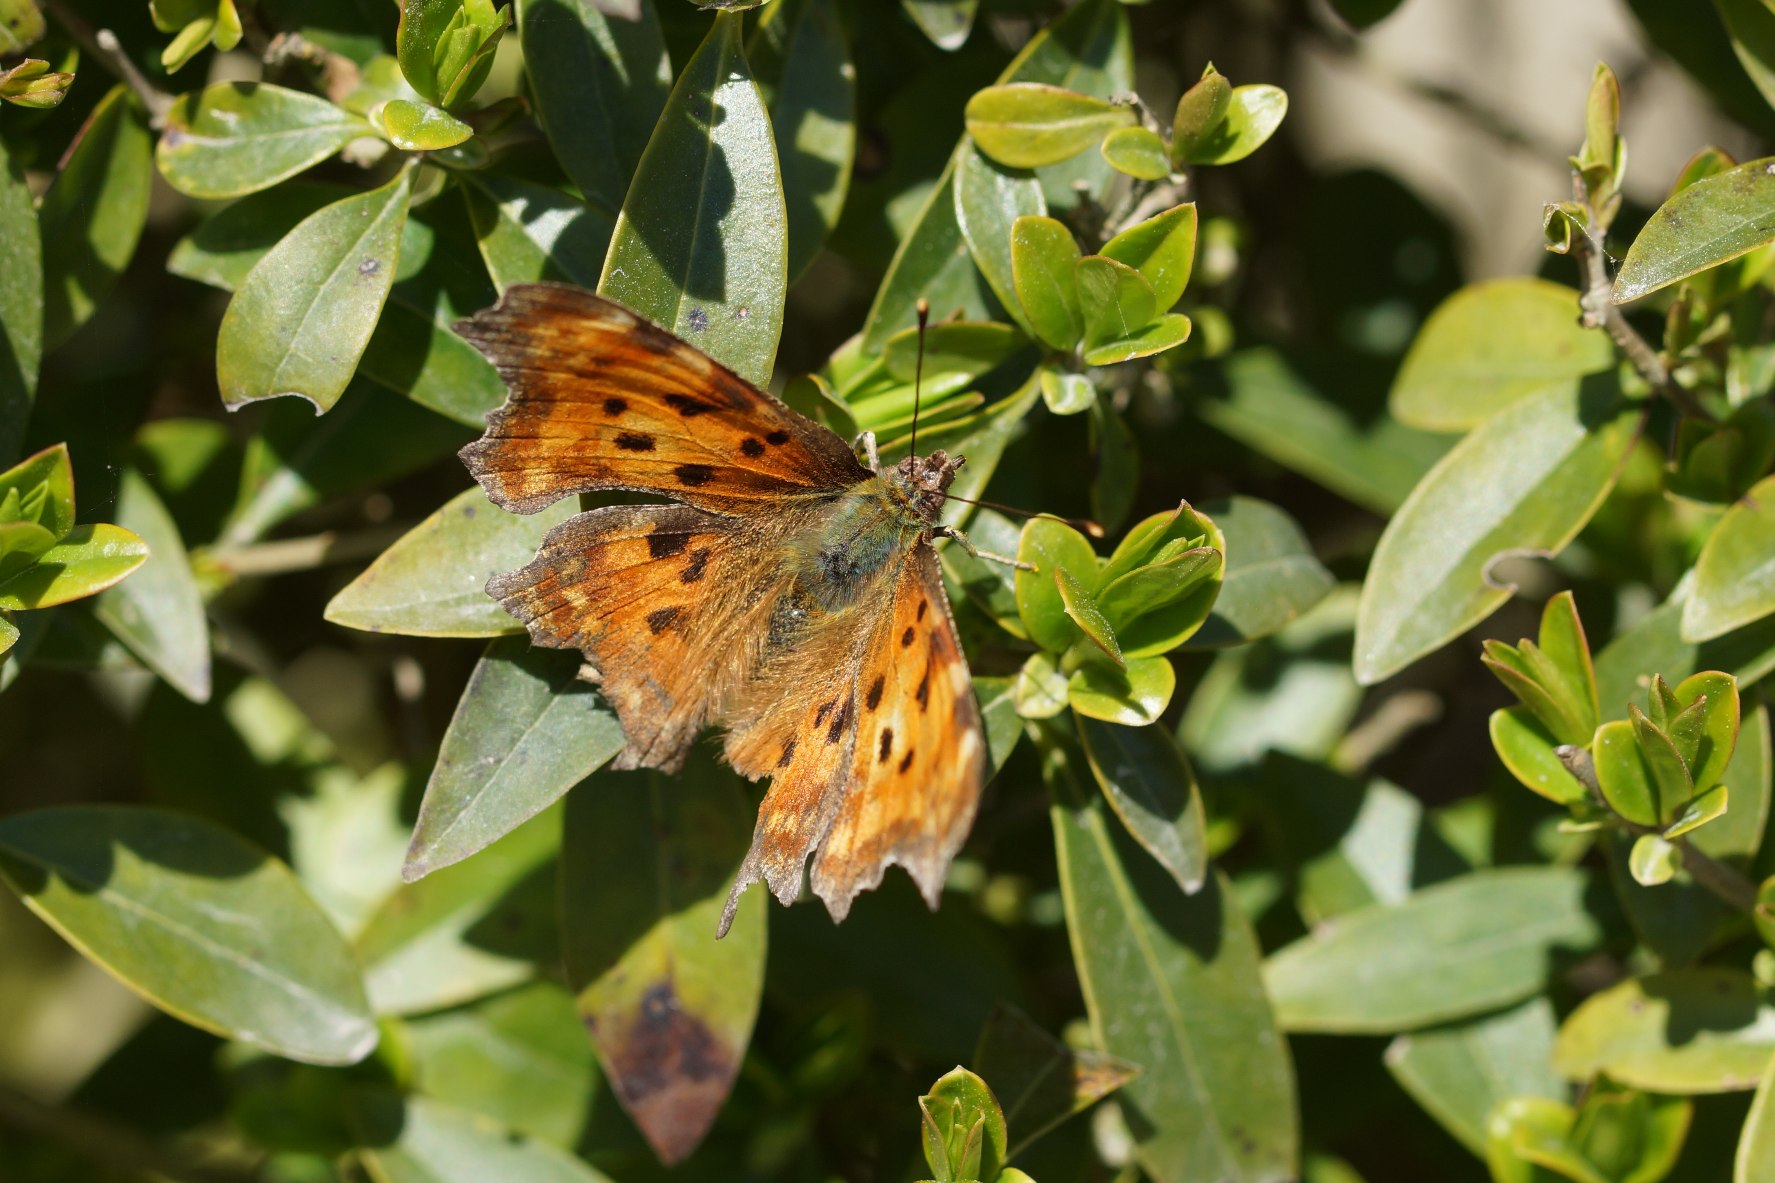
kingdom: Animalia
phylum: Arthropoda
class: Insecta
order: Lepidoptera
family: Nymphalidae
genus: Polygonia
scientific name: Polygonia c-album
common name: Det hvide C
